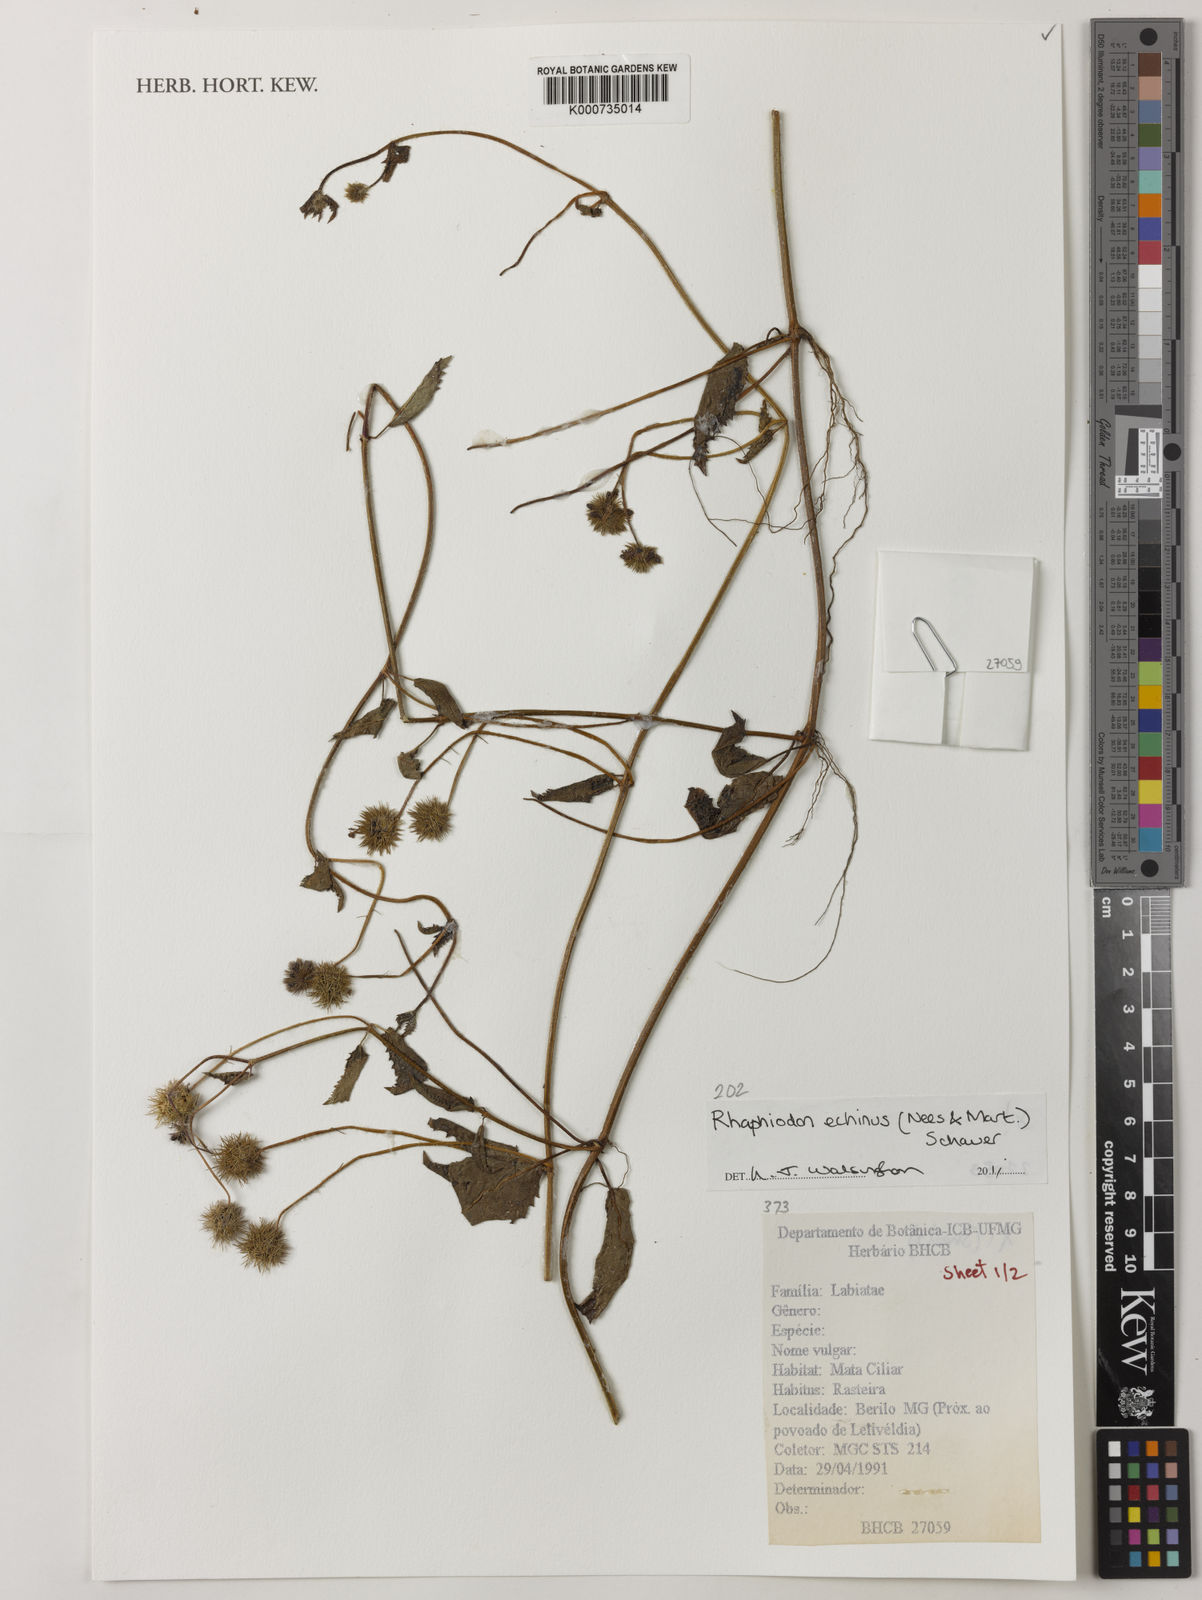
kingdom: Plantae
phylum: Tracheophyta
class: Magnoliopsida
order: Lamiales
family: Lamiaceae
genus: Rhaphiodon
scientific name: Rhaphiodon echinus
